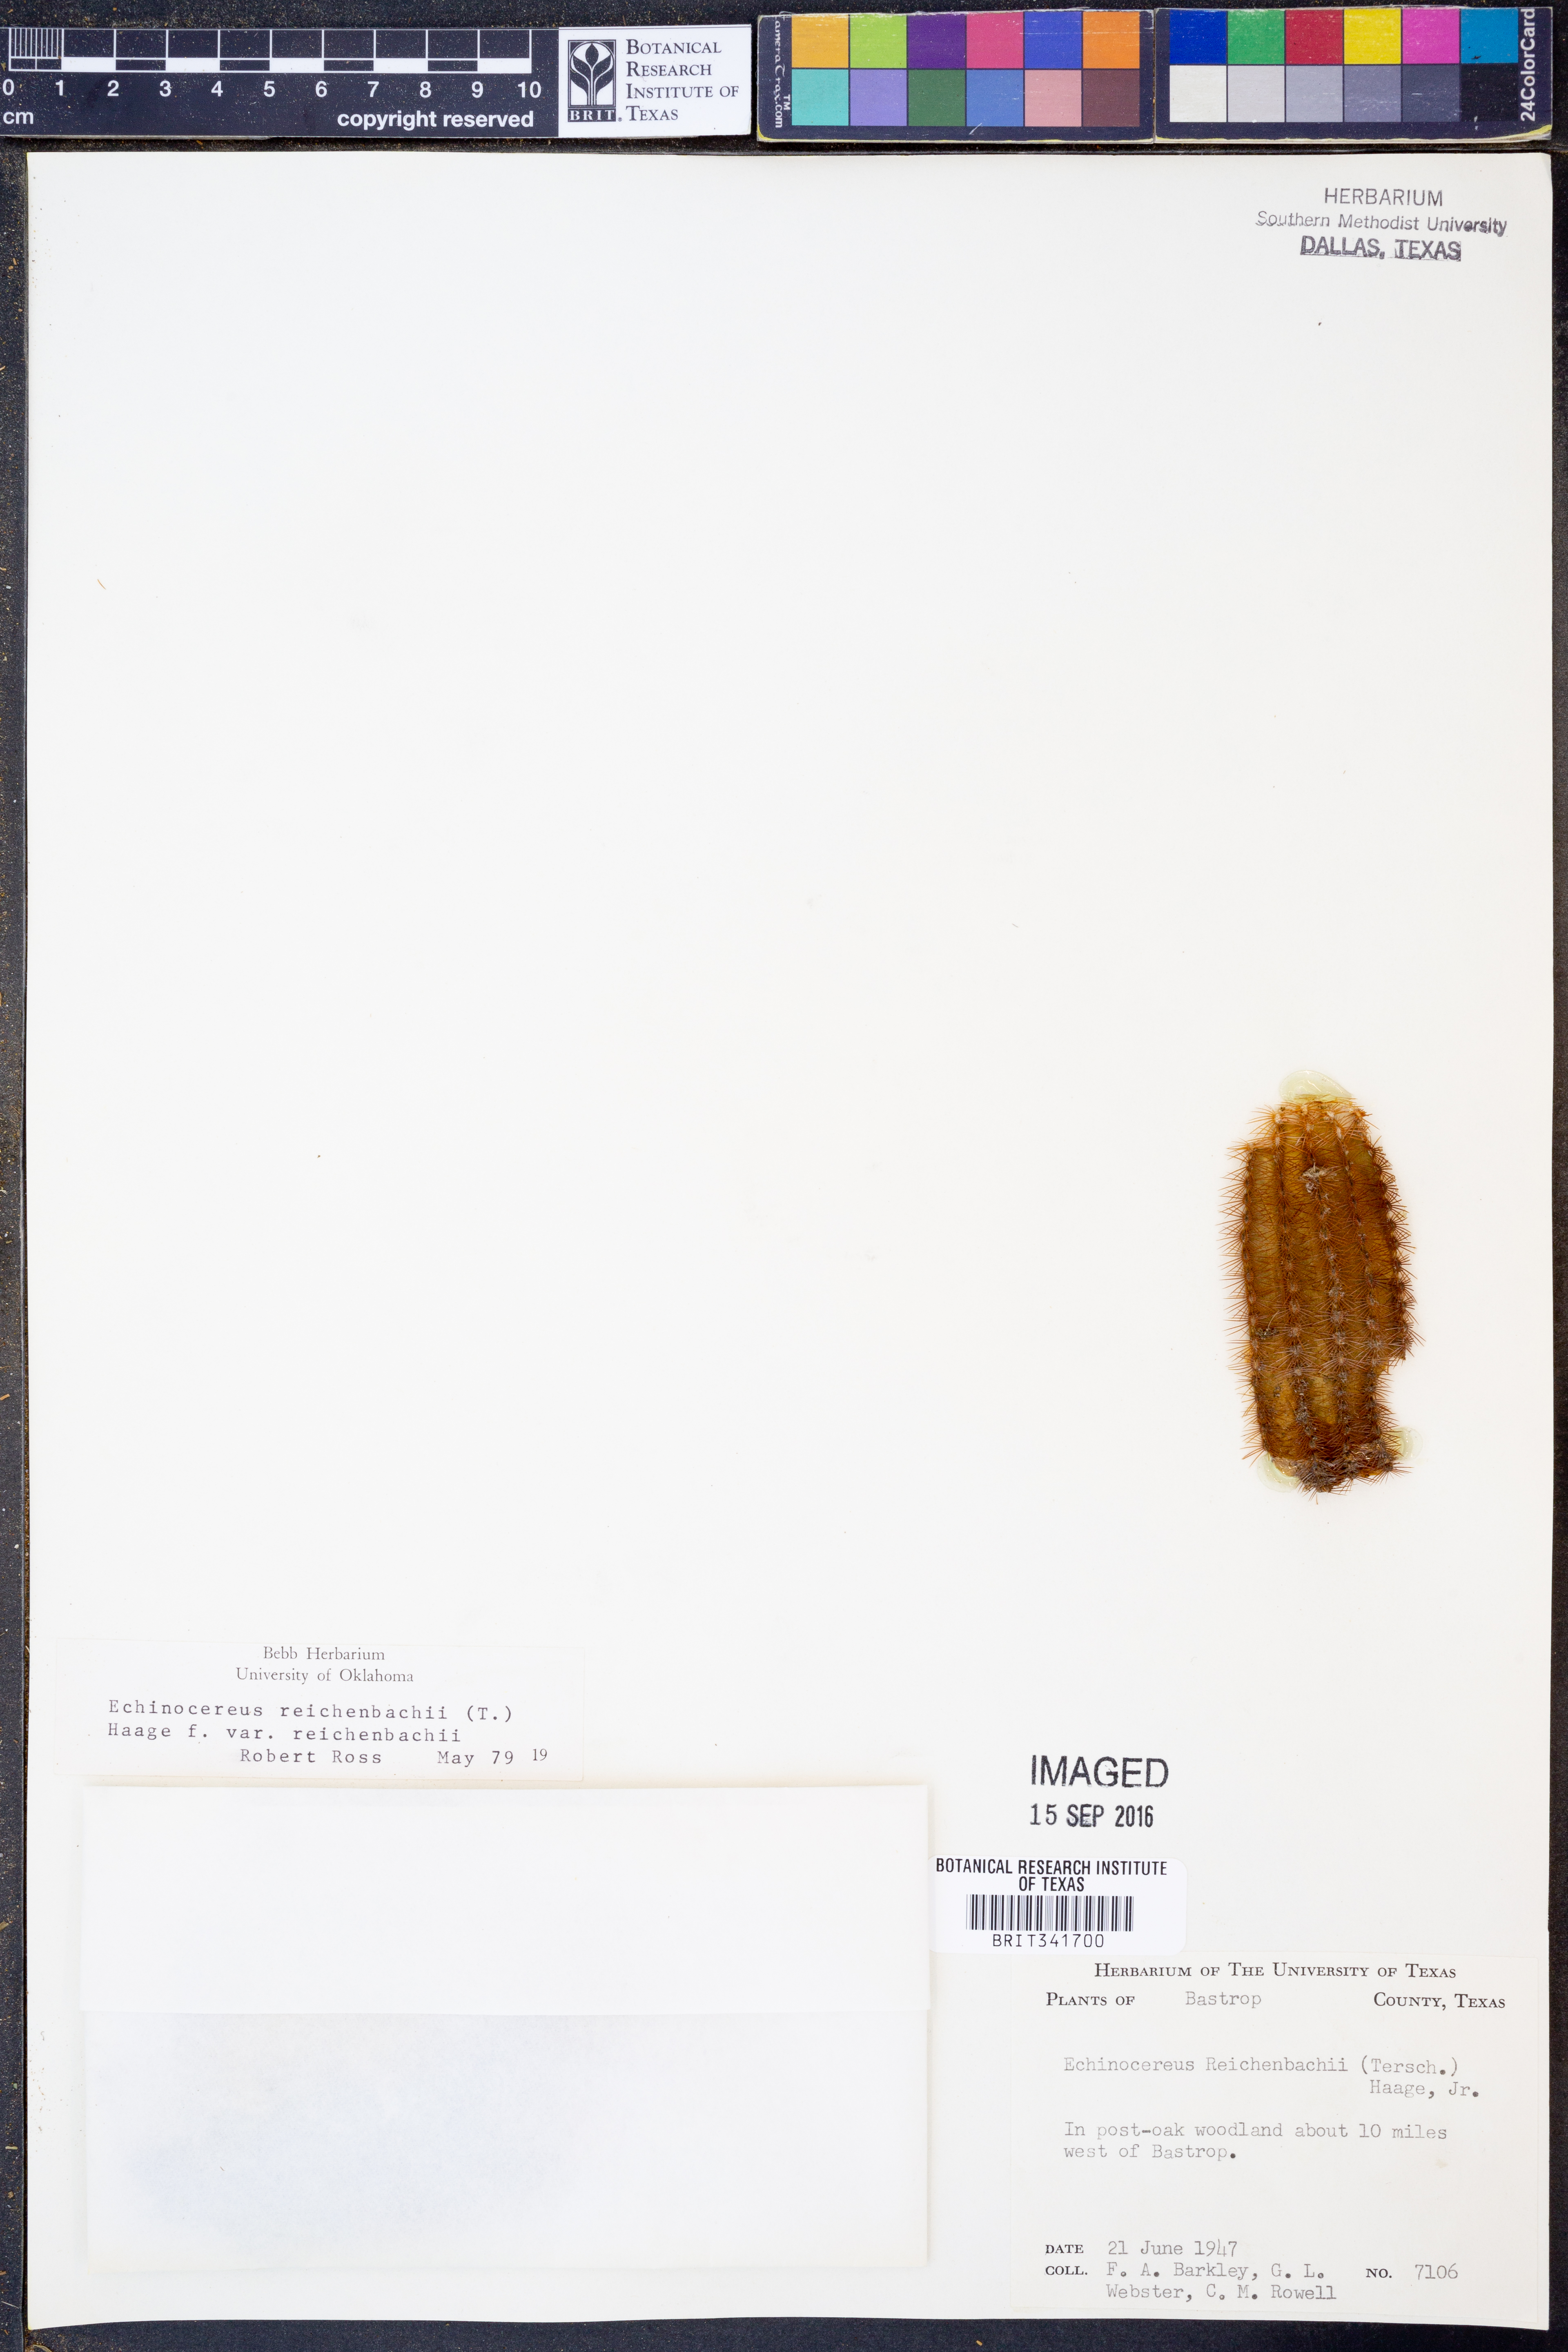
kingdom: Plantae
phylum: Tracheophyta
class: Magnoliopsida
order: Caryophyllales
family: Cactaceae
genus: Echinocereus
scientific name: Echinocereus reichenbachii
